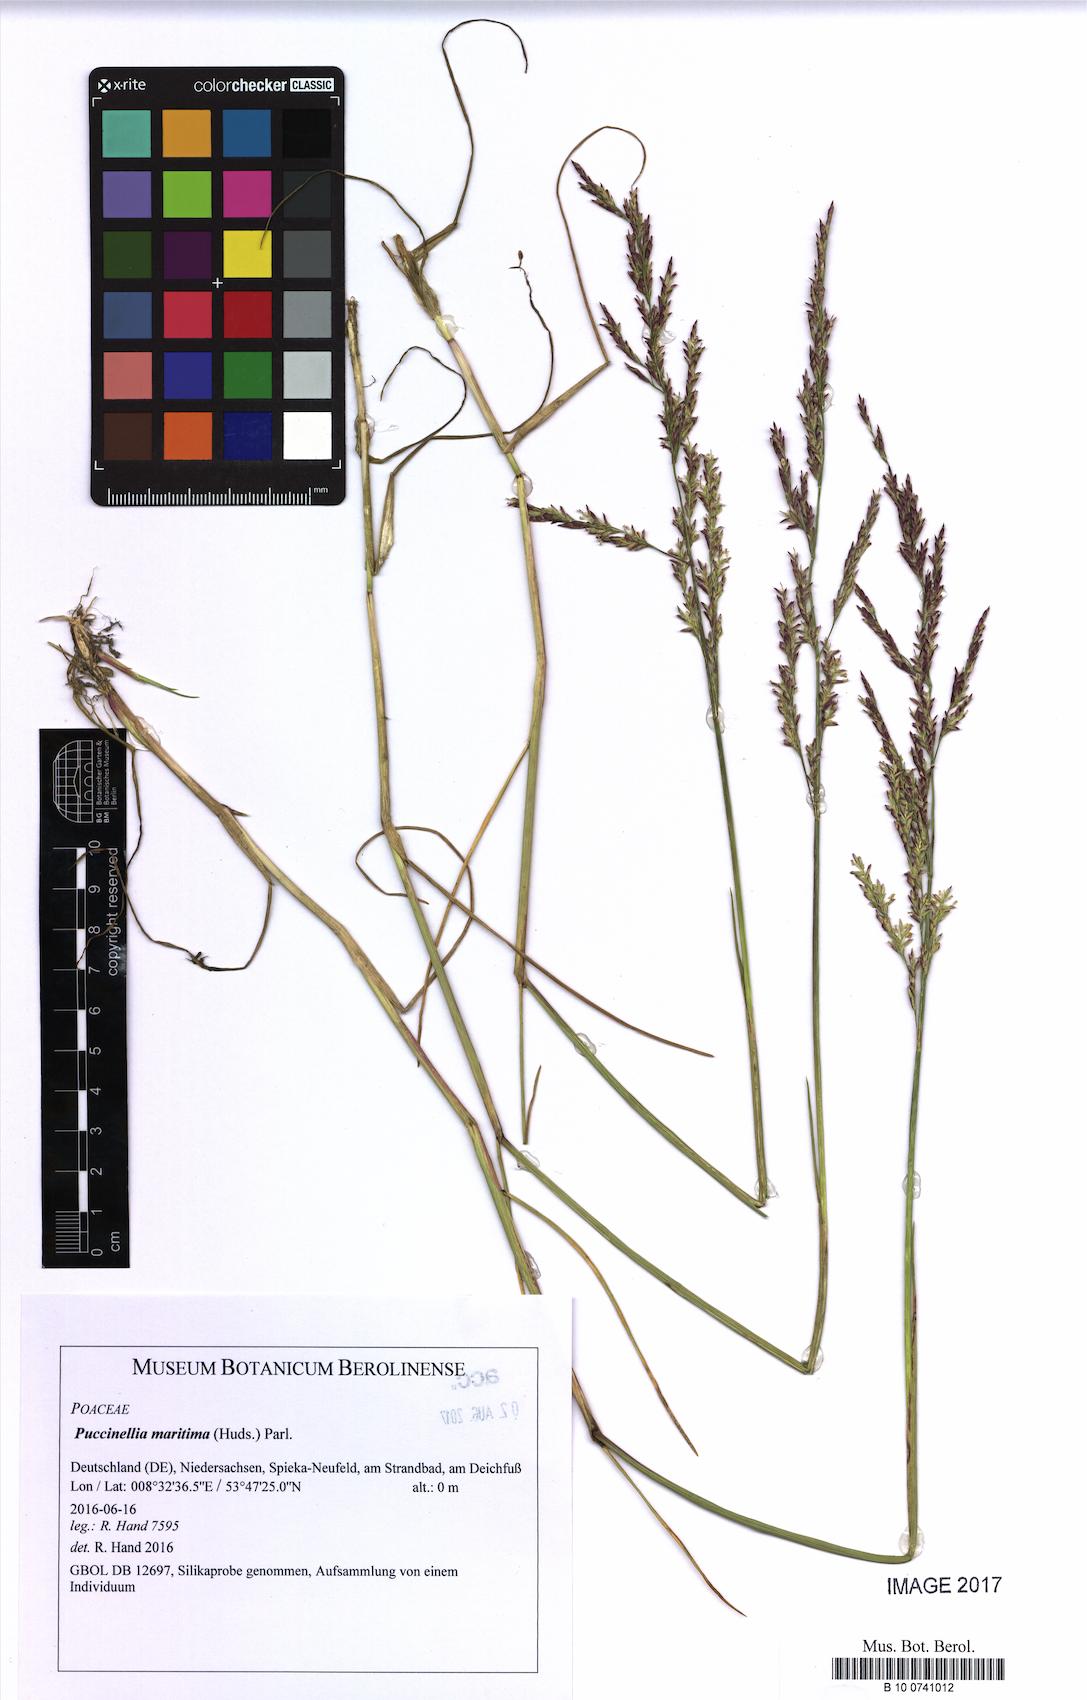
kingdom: Plantae
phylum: Tracheophyta
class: Liliopsida
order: Poales
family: Poaceae
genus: Puccinellia
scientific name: Puccinellia maritima
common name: Common saltmarsh grass
